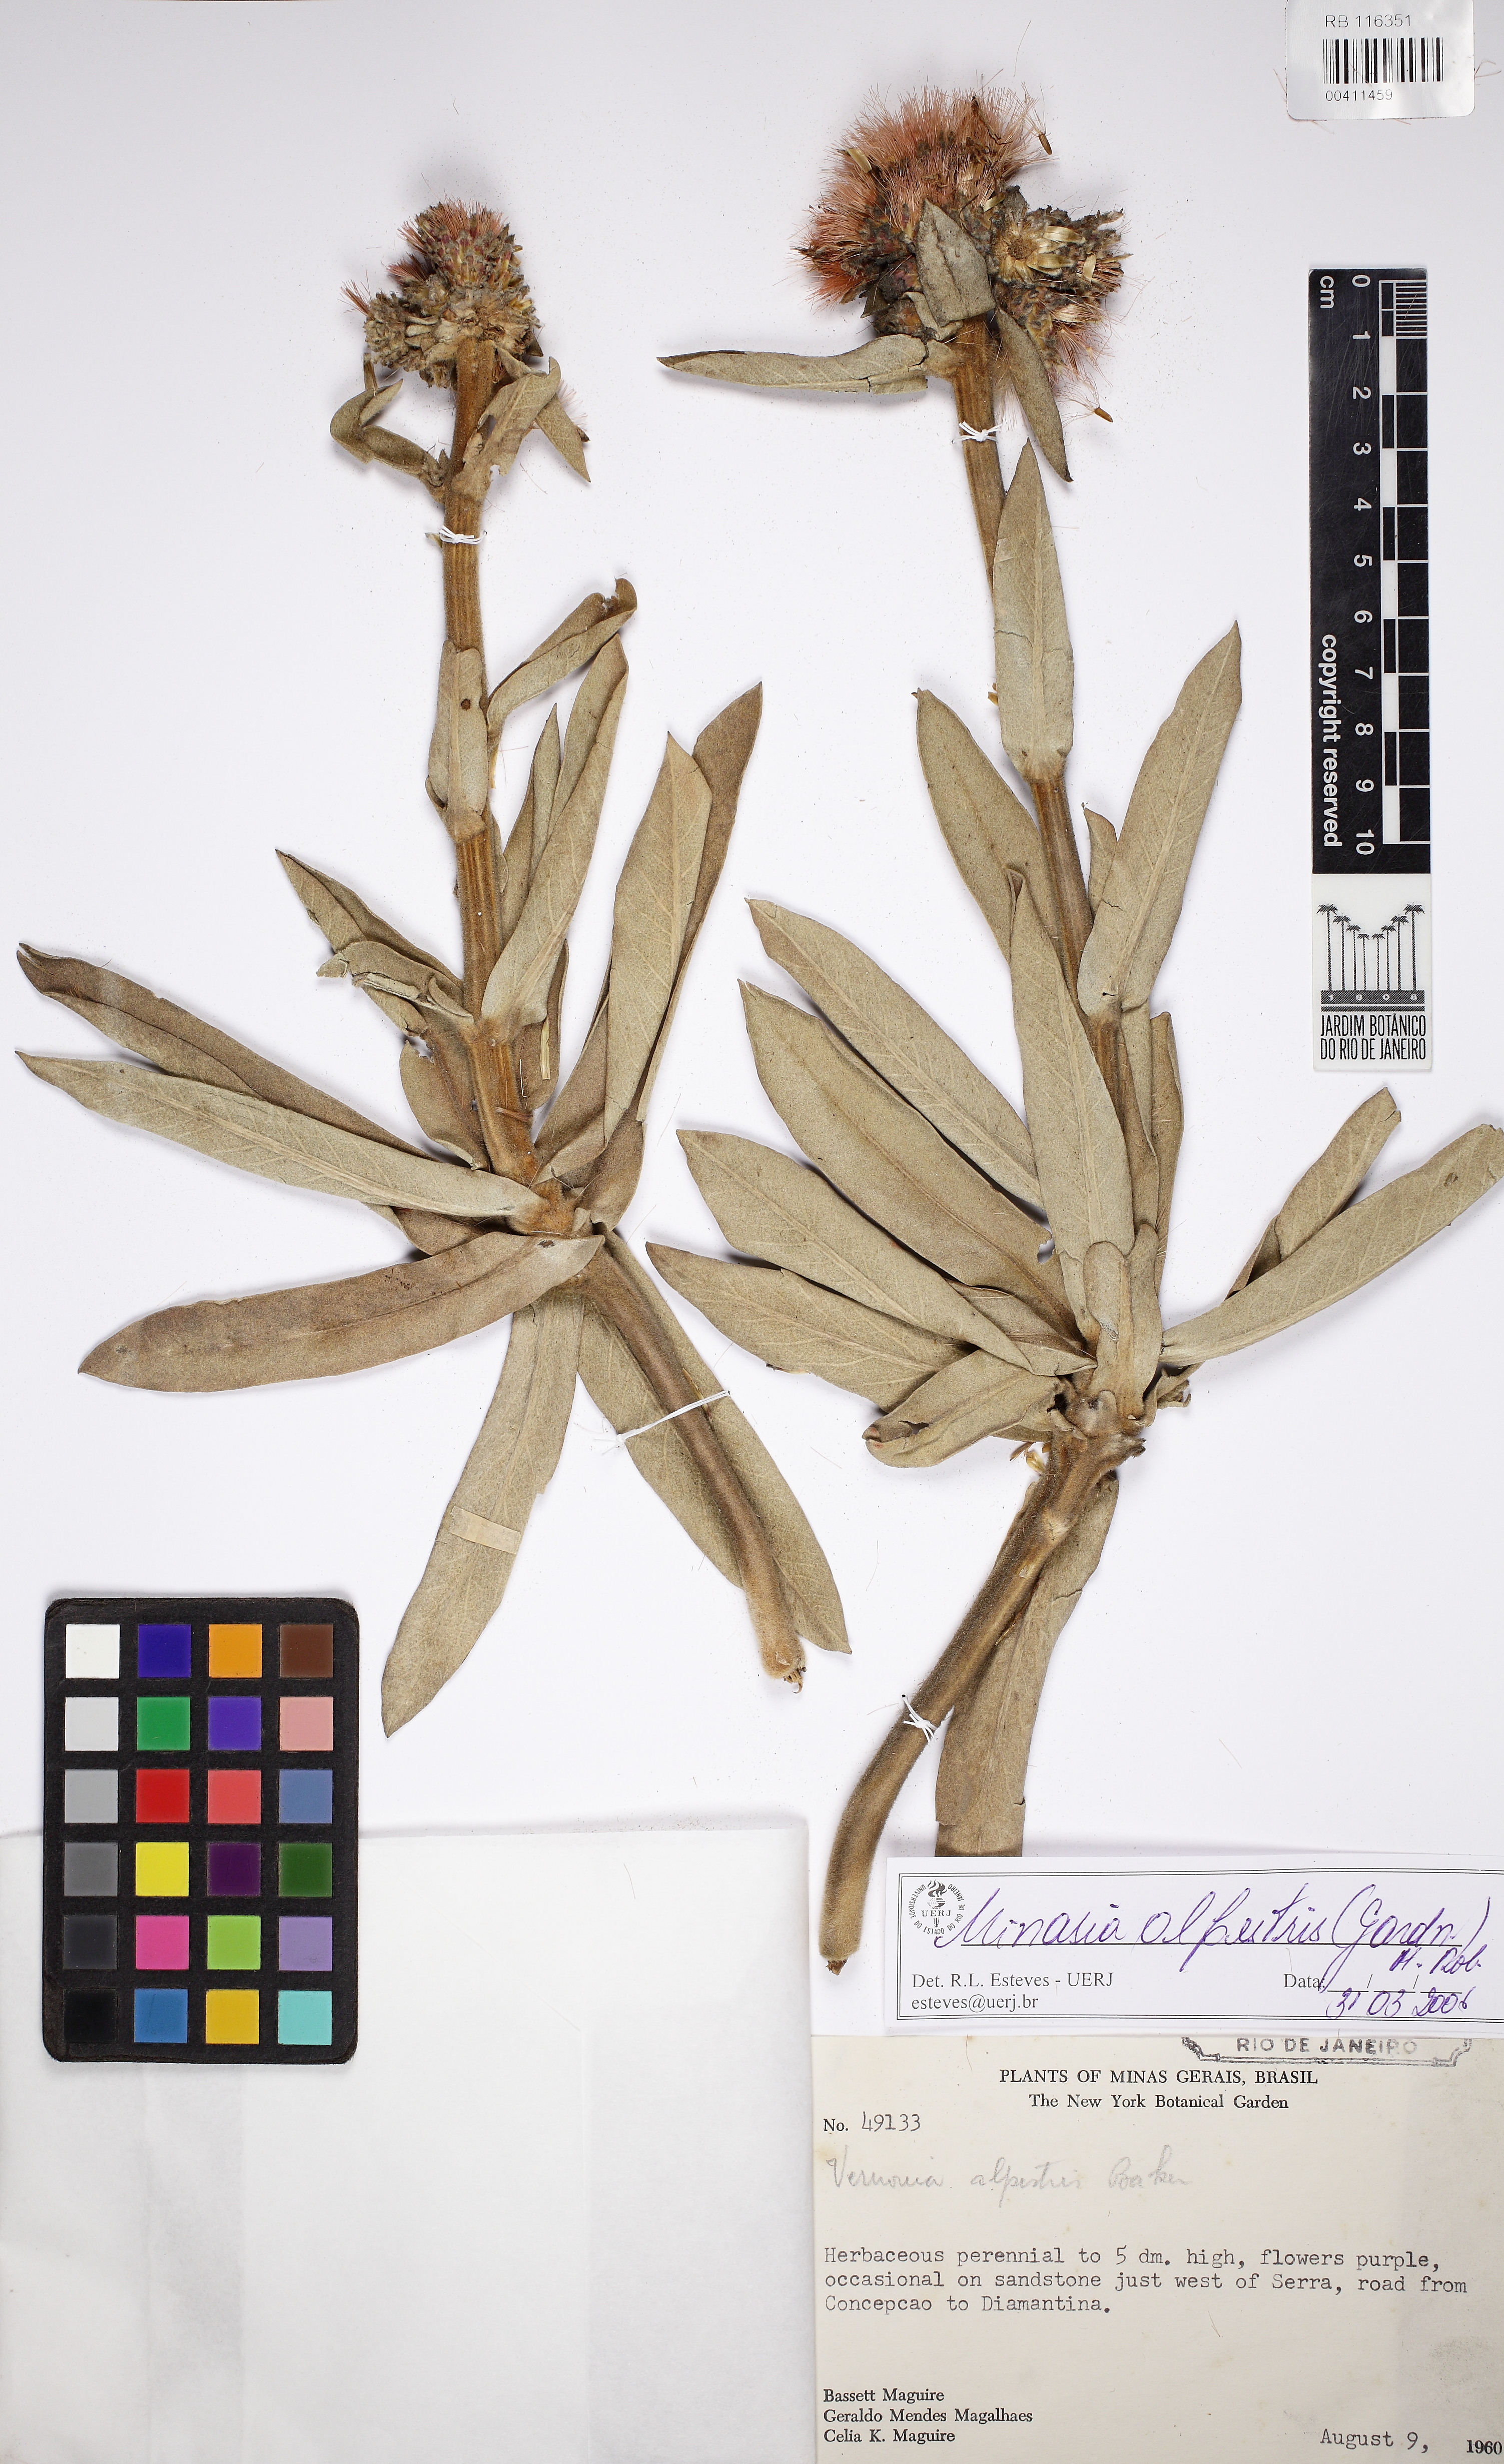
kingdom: Plantae
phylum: Tracheophyta
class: Magnoliopsida
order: Asterales
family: Asteraceae
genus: Minasia
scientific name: Minasia alpestris
